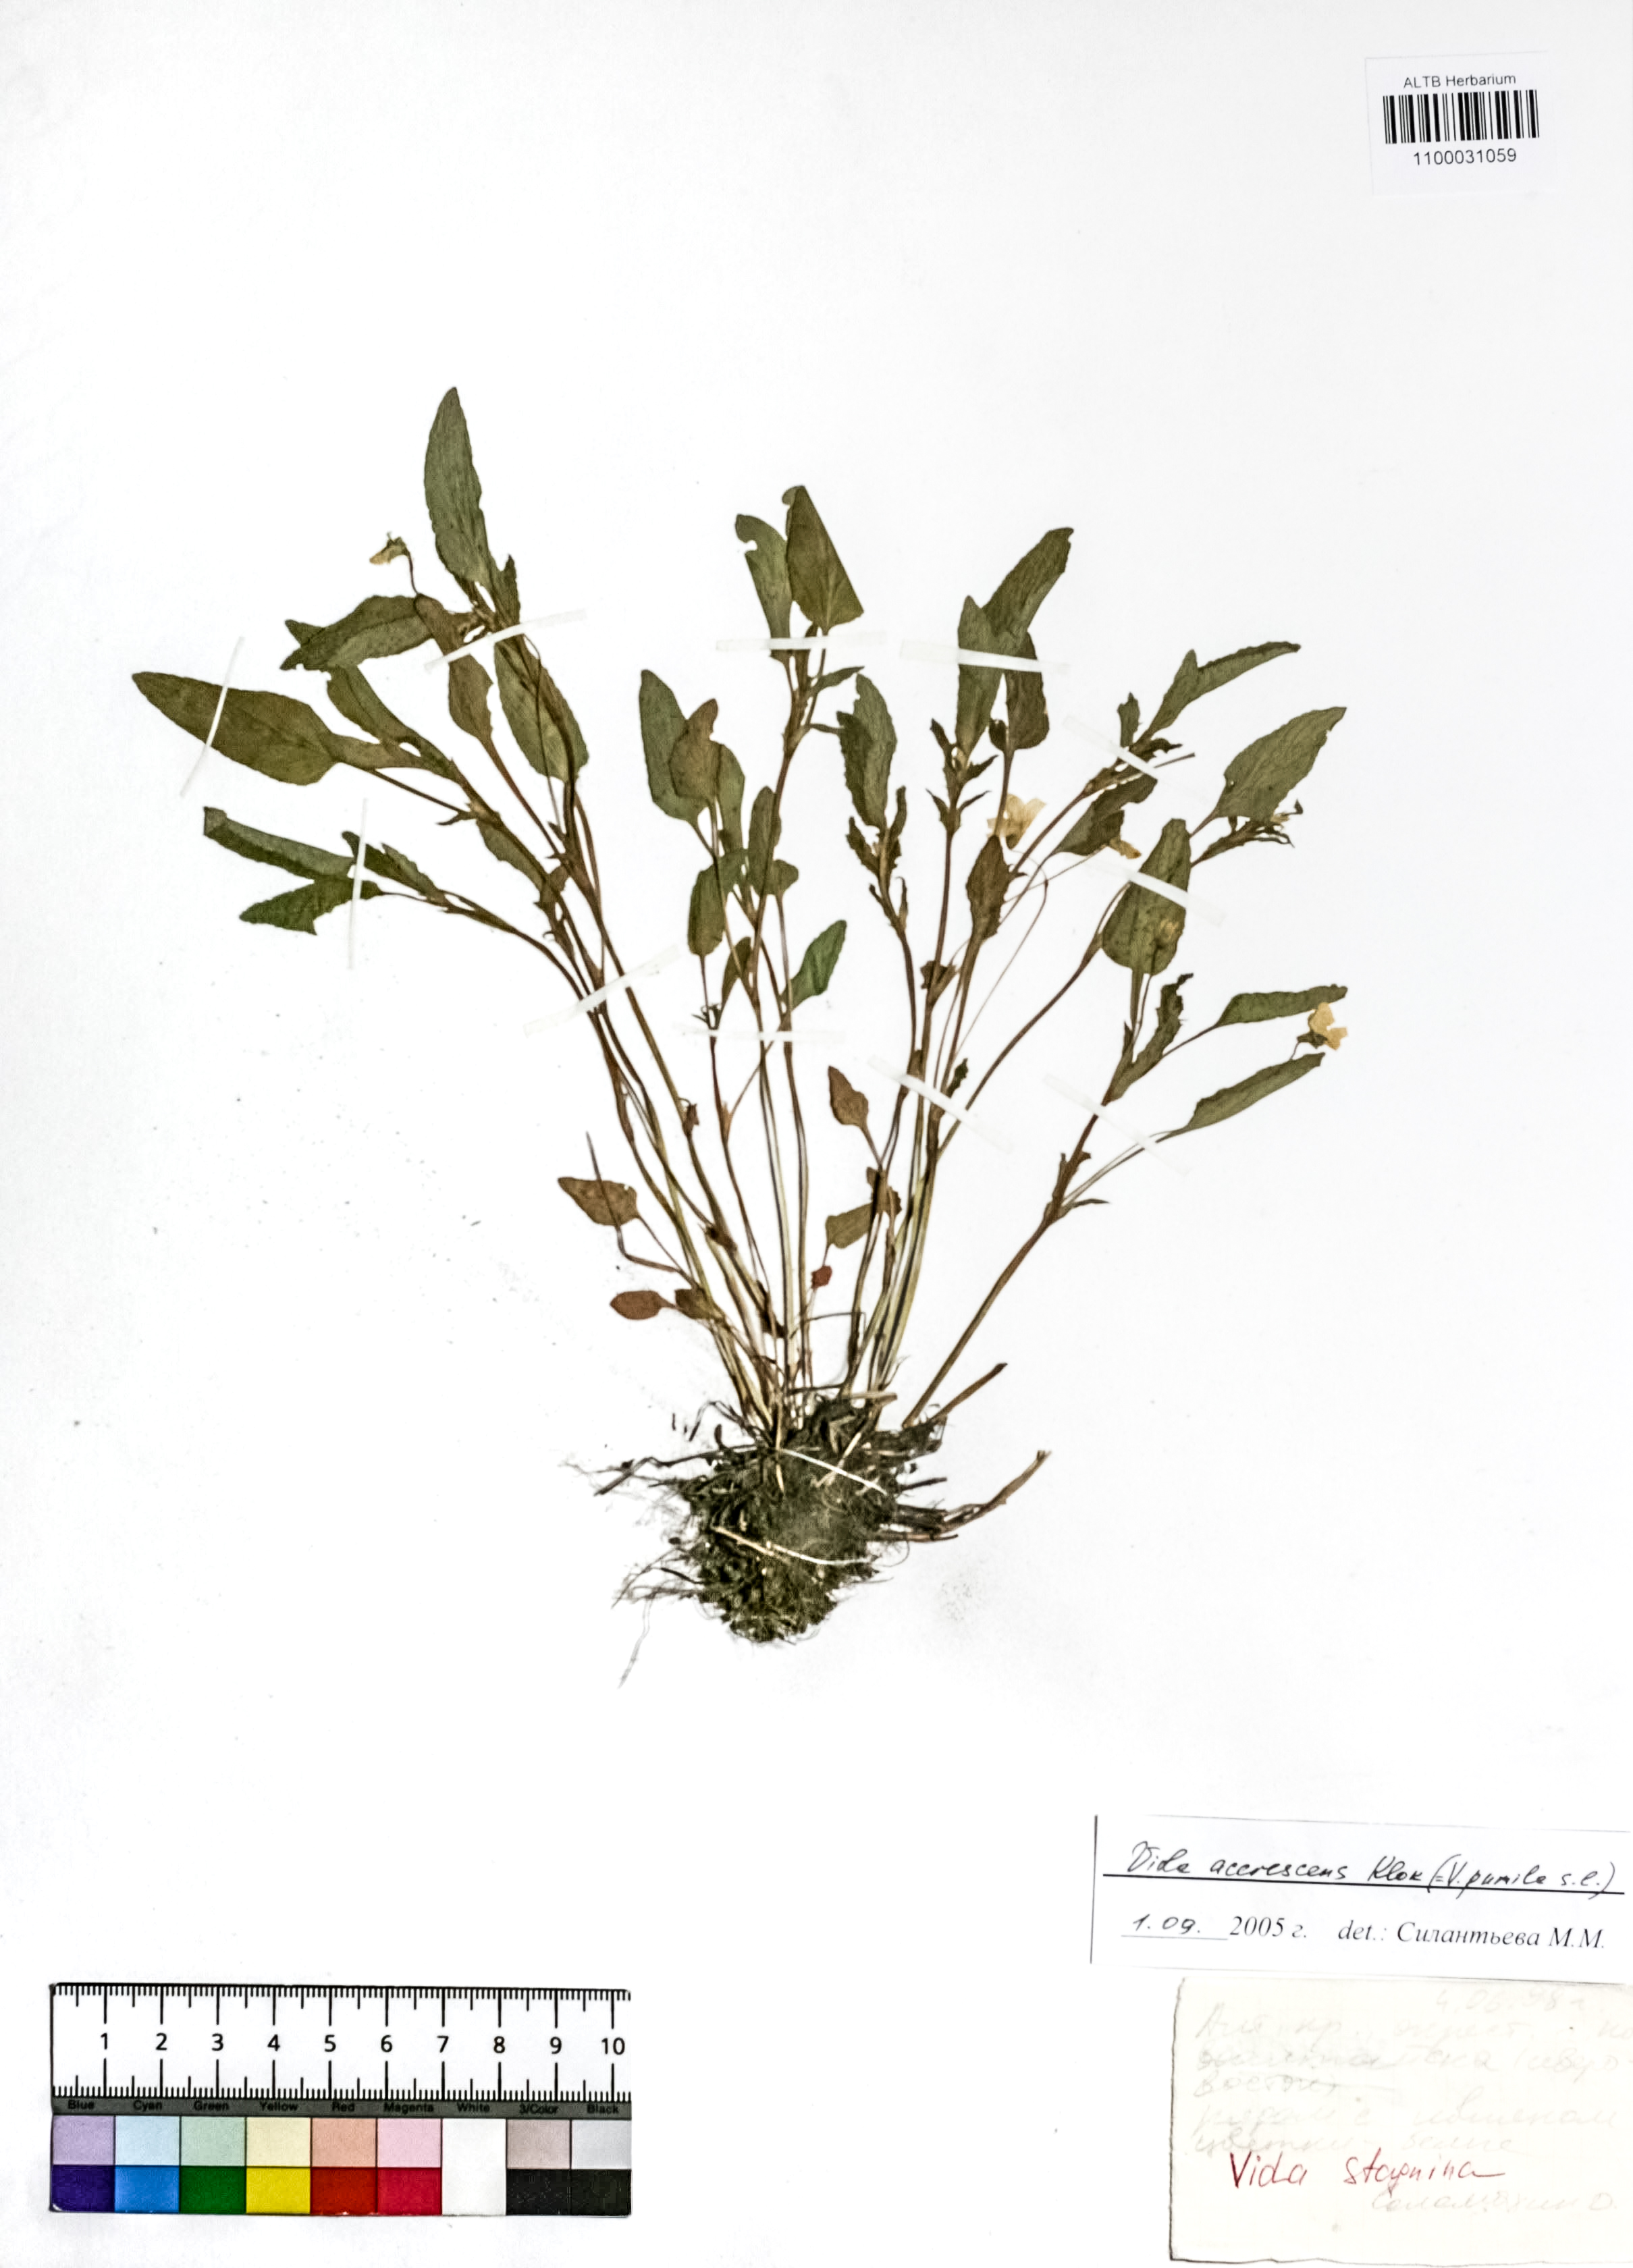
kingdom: Plantae
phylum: Tracheophyta
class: Magnoliopsida
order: Malpighiales
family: Violaceae
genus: Viola
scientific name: Viola pumila
